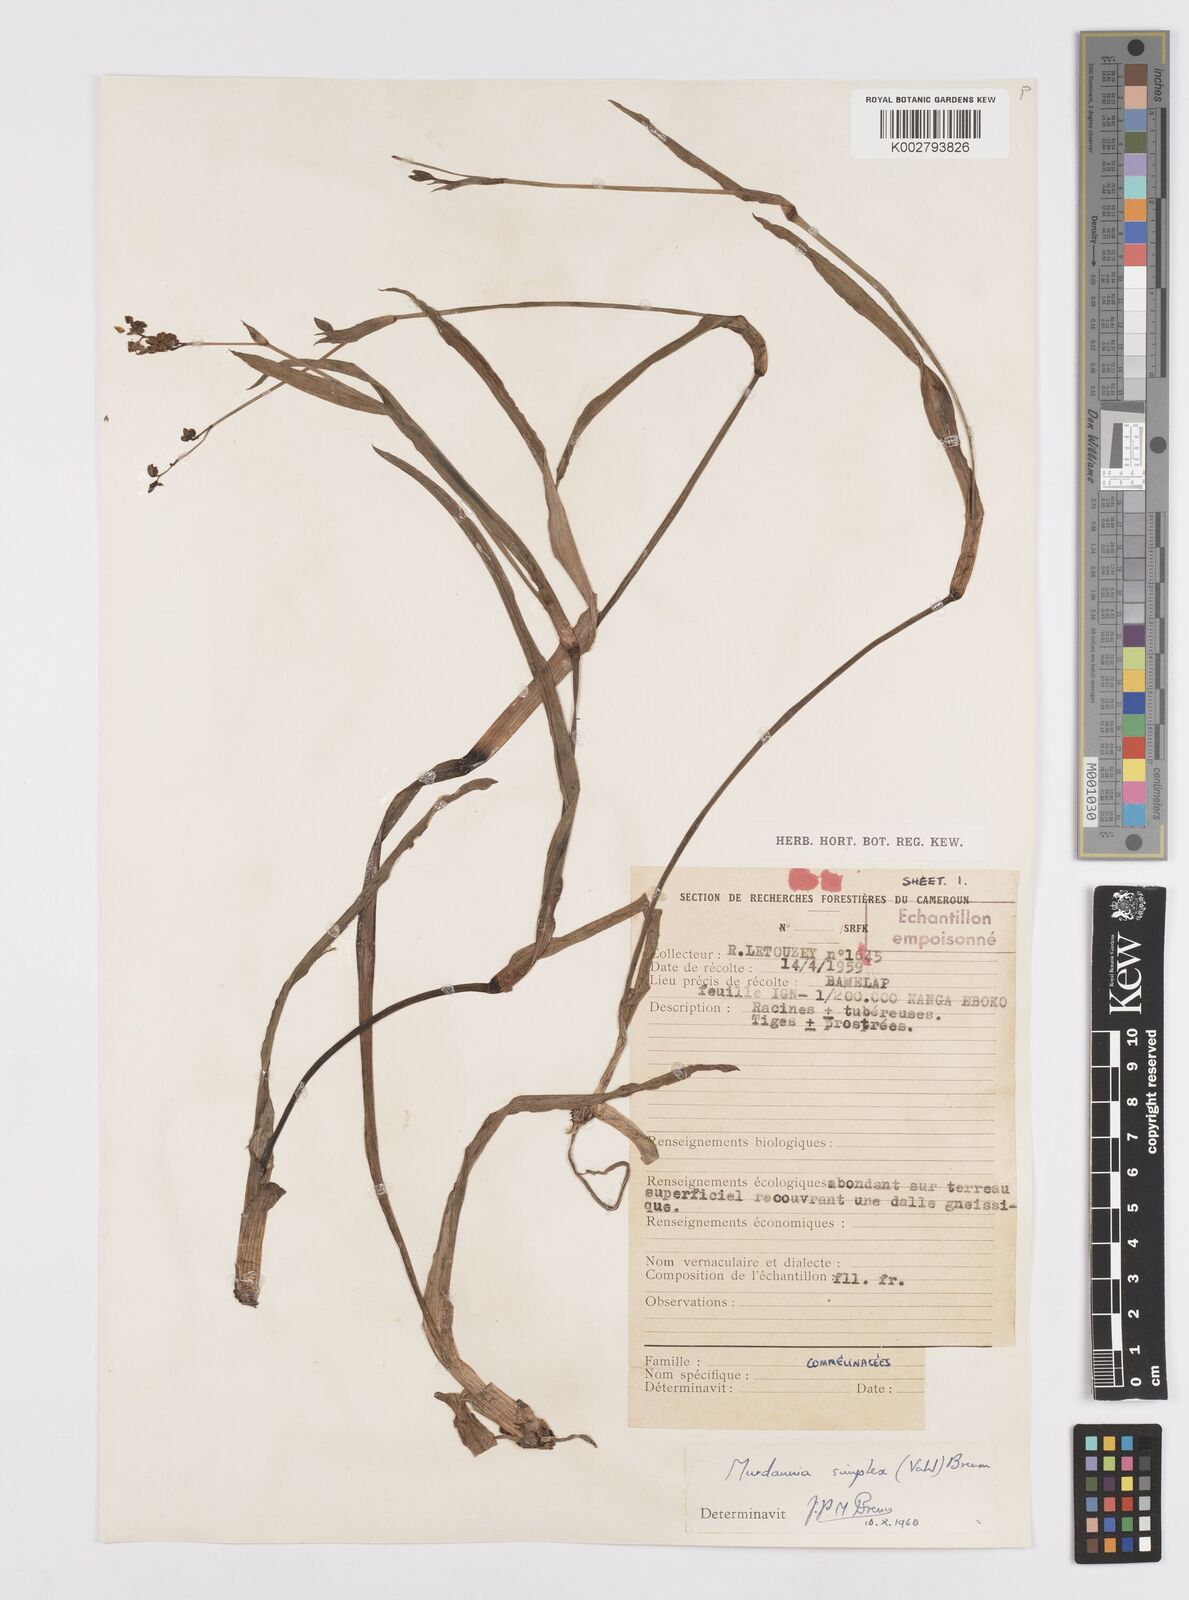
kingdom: Plantae
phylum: Tracheophyta
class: Liliopsida
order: Commelinales
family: Commelinaceae
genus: Murdannia
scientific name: Murdannia simplex
